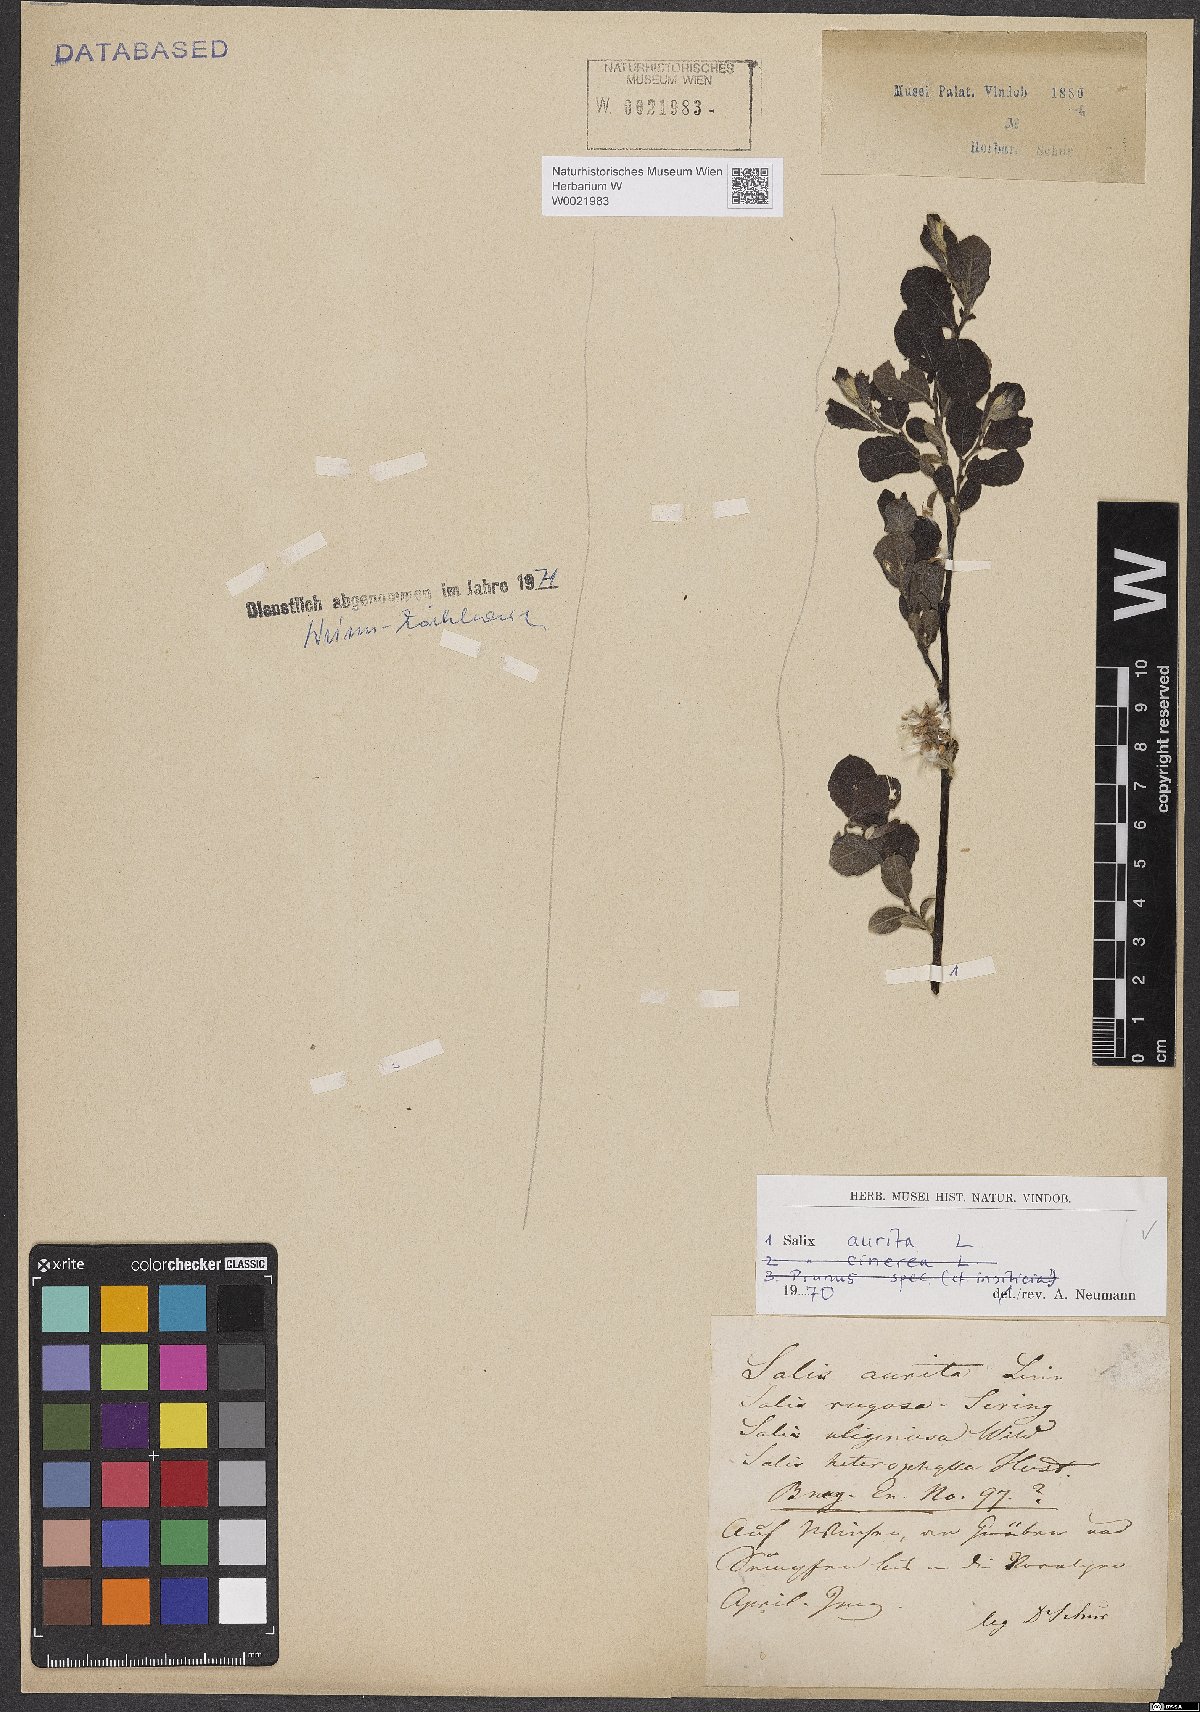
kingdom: Plantae
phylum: Tracheophyta
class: Magnoliopsida
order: Malpighiales
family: Salicaceae
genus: Salix
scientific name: Salix aurita
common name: Eared willow
